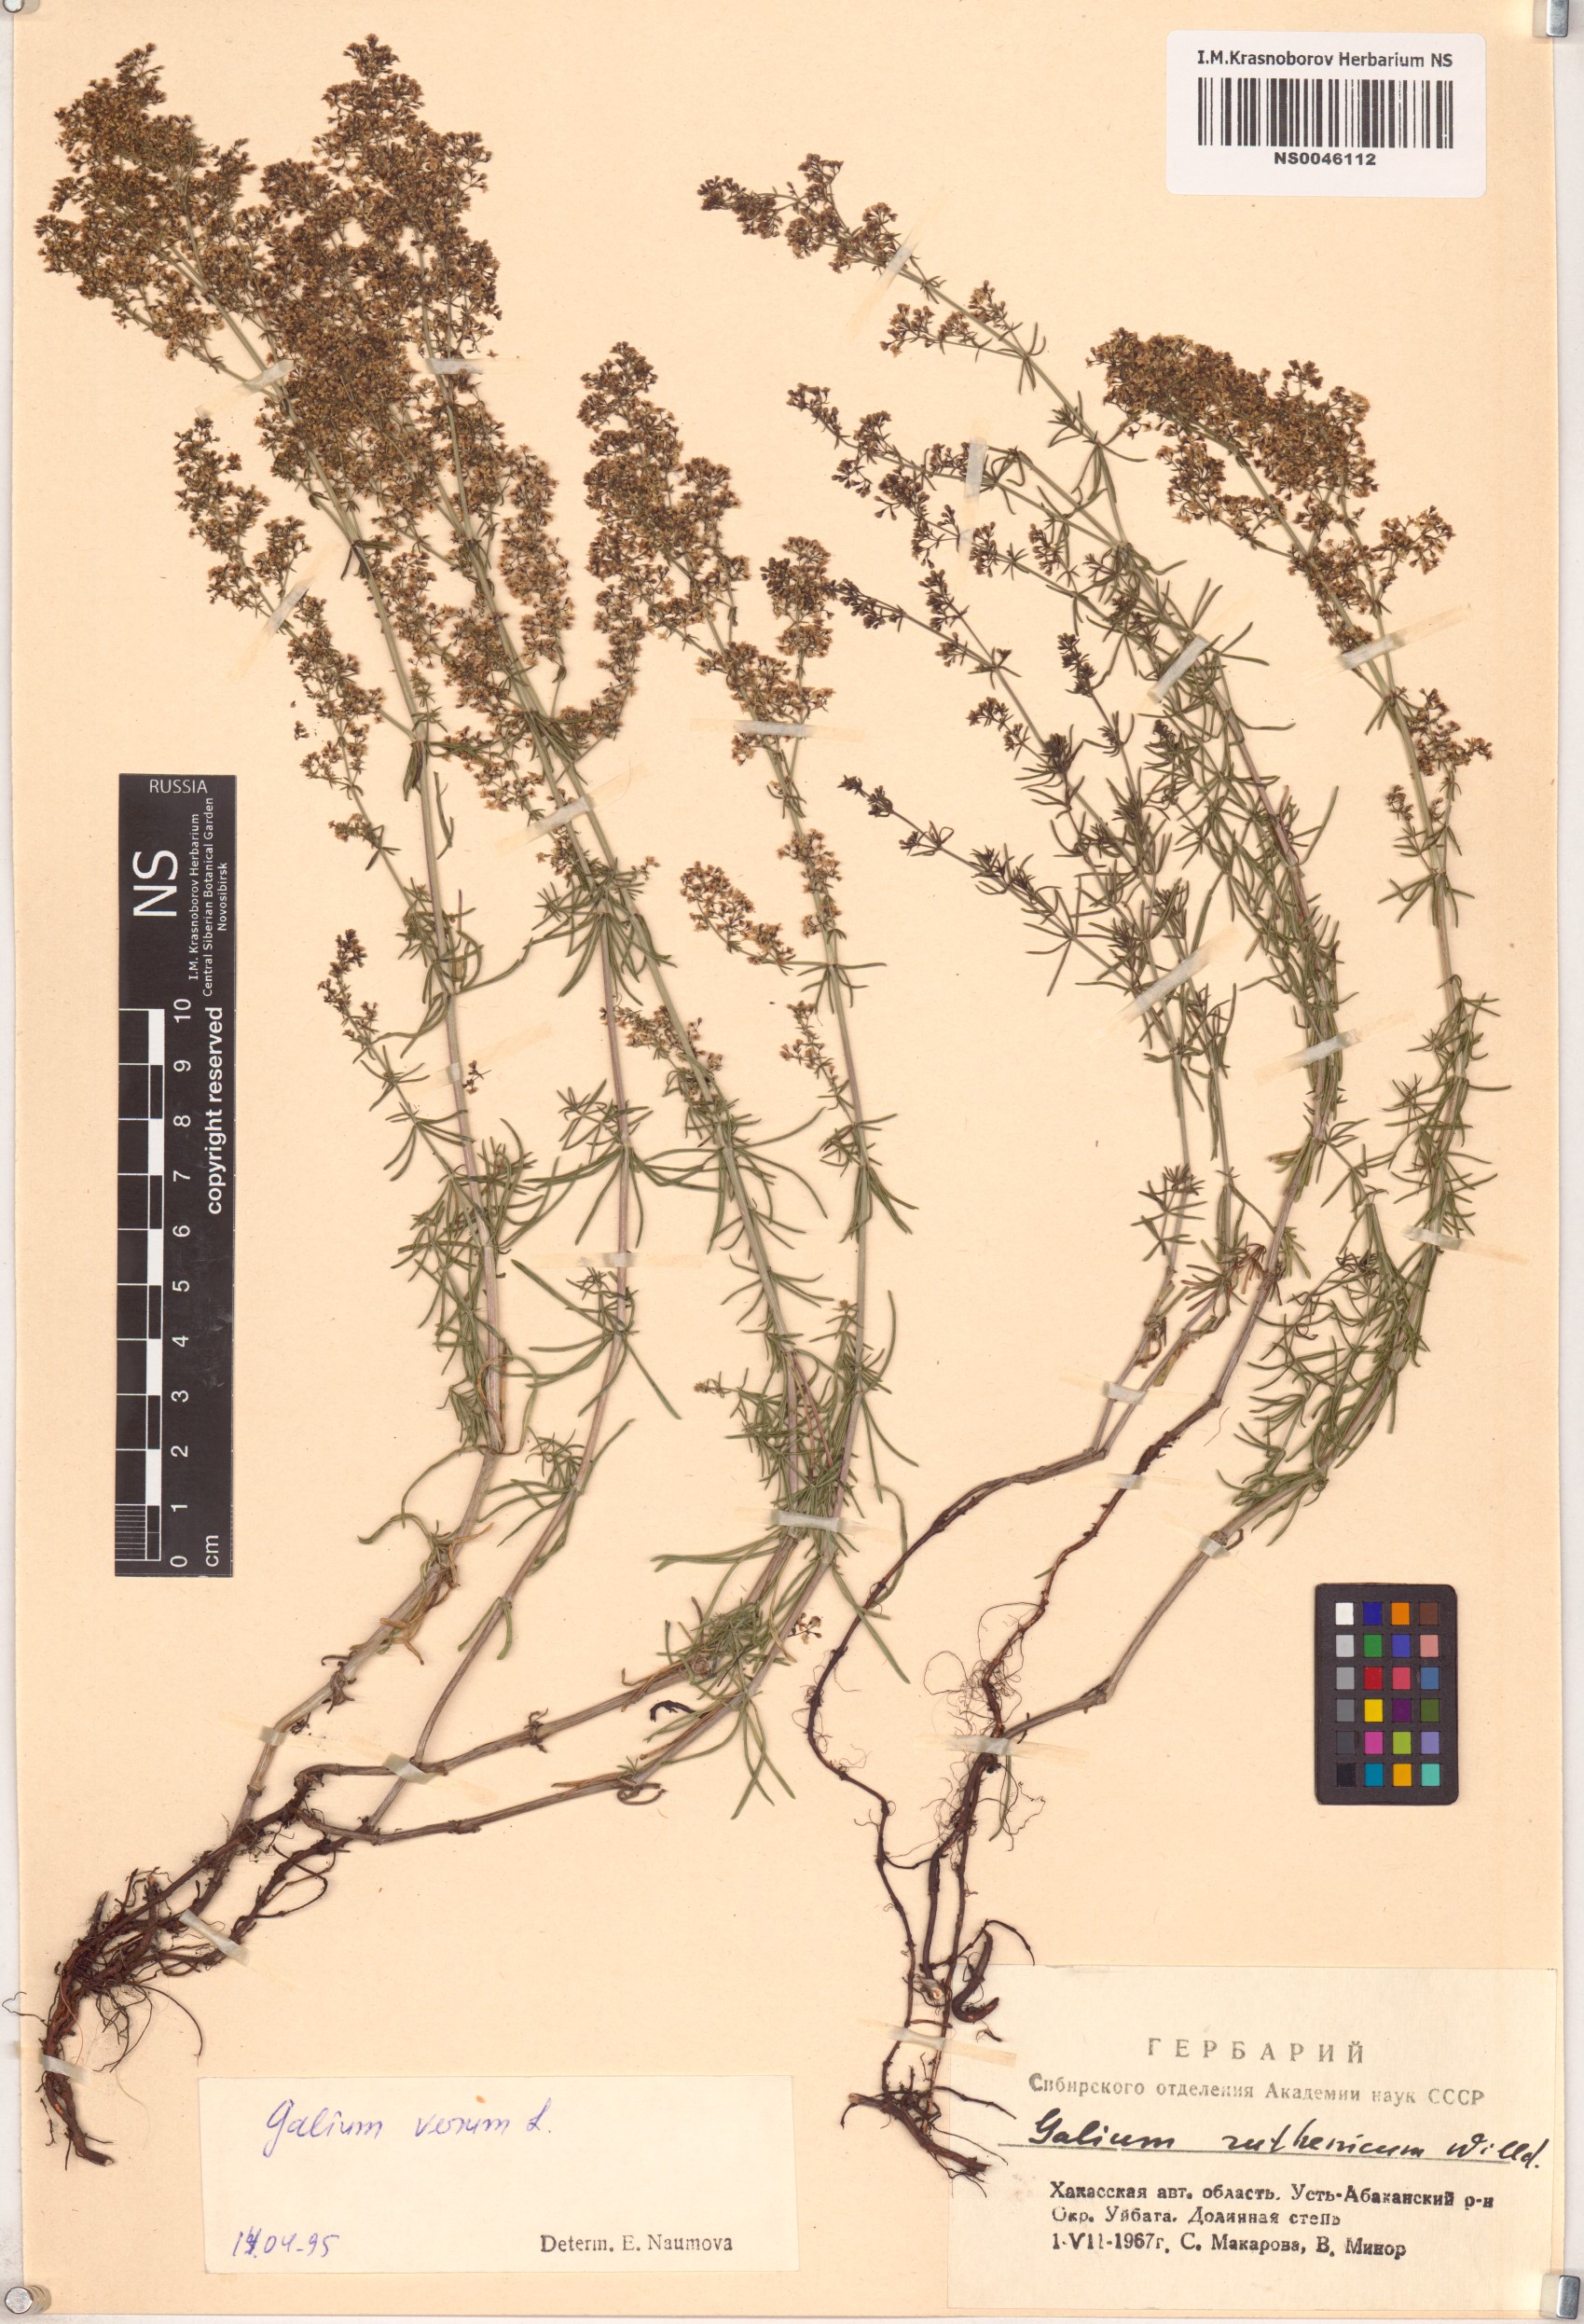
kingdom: Plantae
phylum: Tracheophyta
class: Magnoliopsida
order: Gentianales
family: Rubiaceae
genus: Galium
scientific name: Galium verum
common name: Lady's bedstraw
